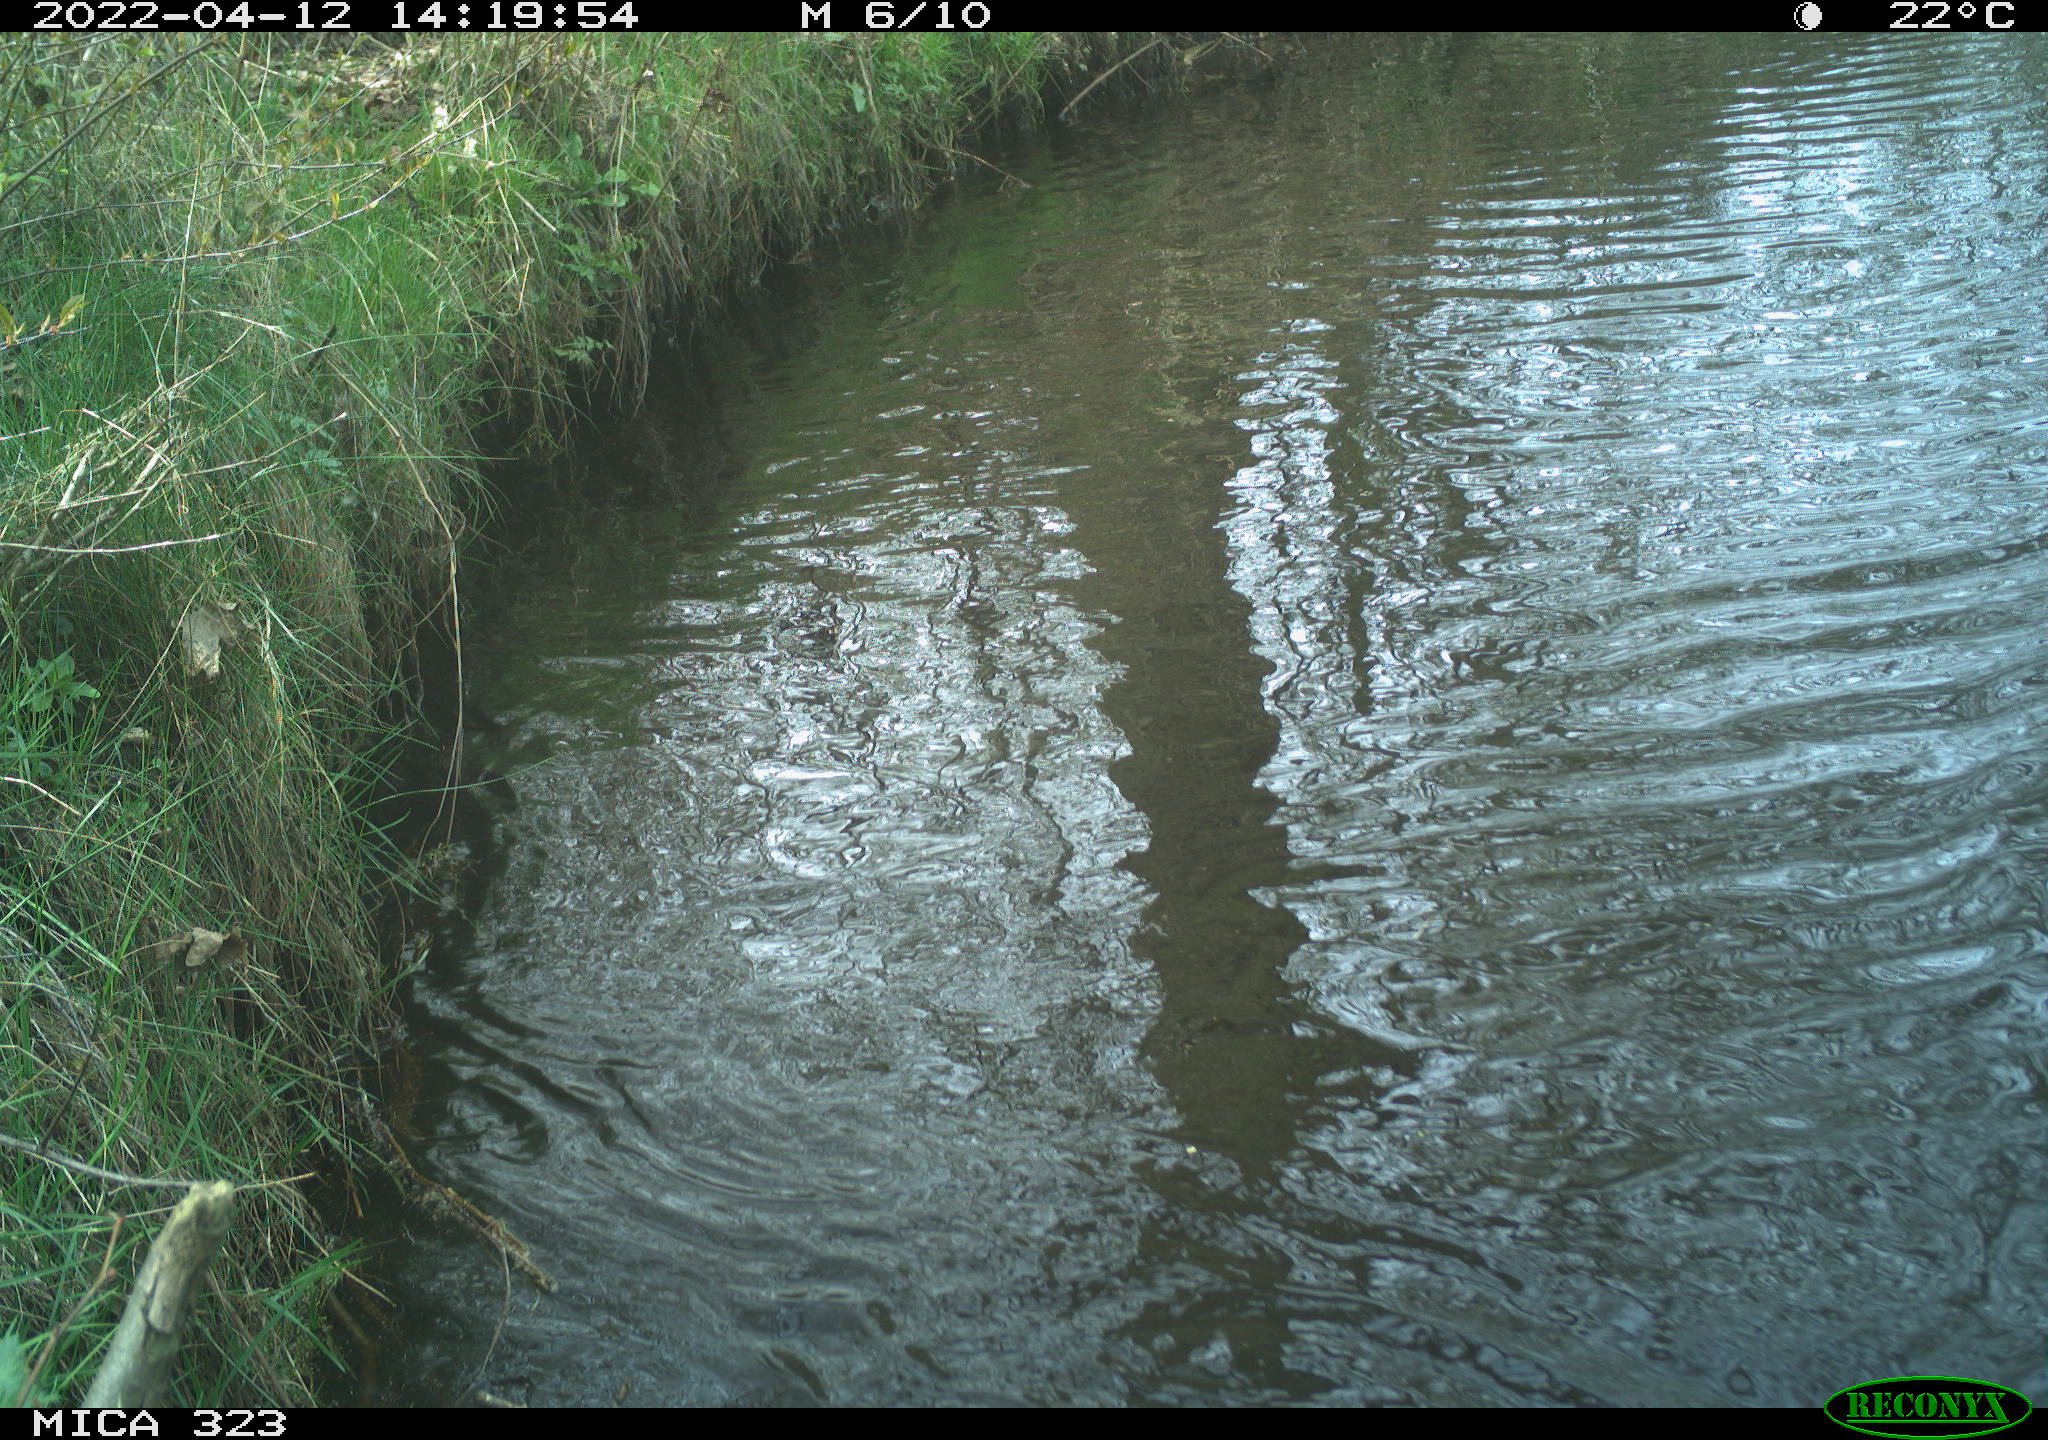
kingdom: Animalia
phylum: Chordata
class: Aves
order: Anseriformes
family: Anatidae
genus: Anas
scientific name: Anas platyrhynchos
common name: Mallard
